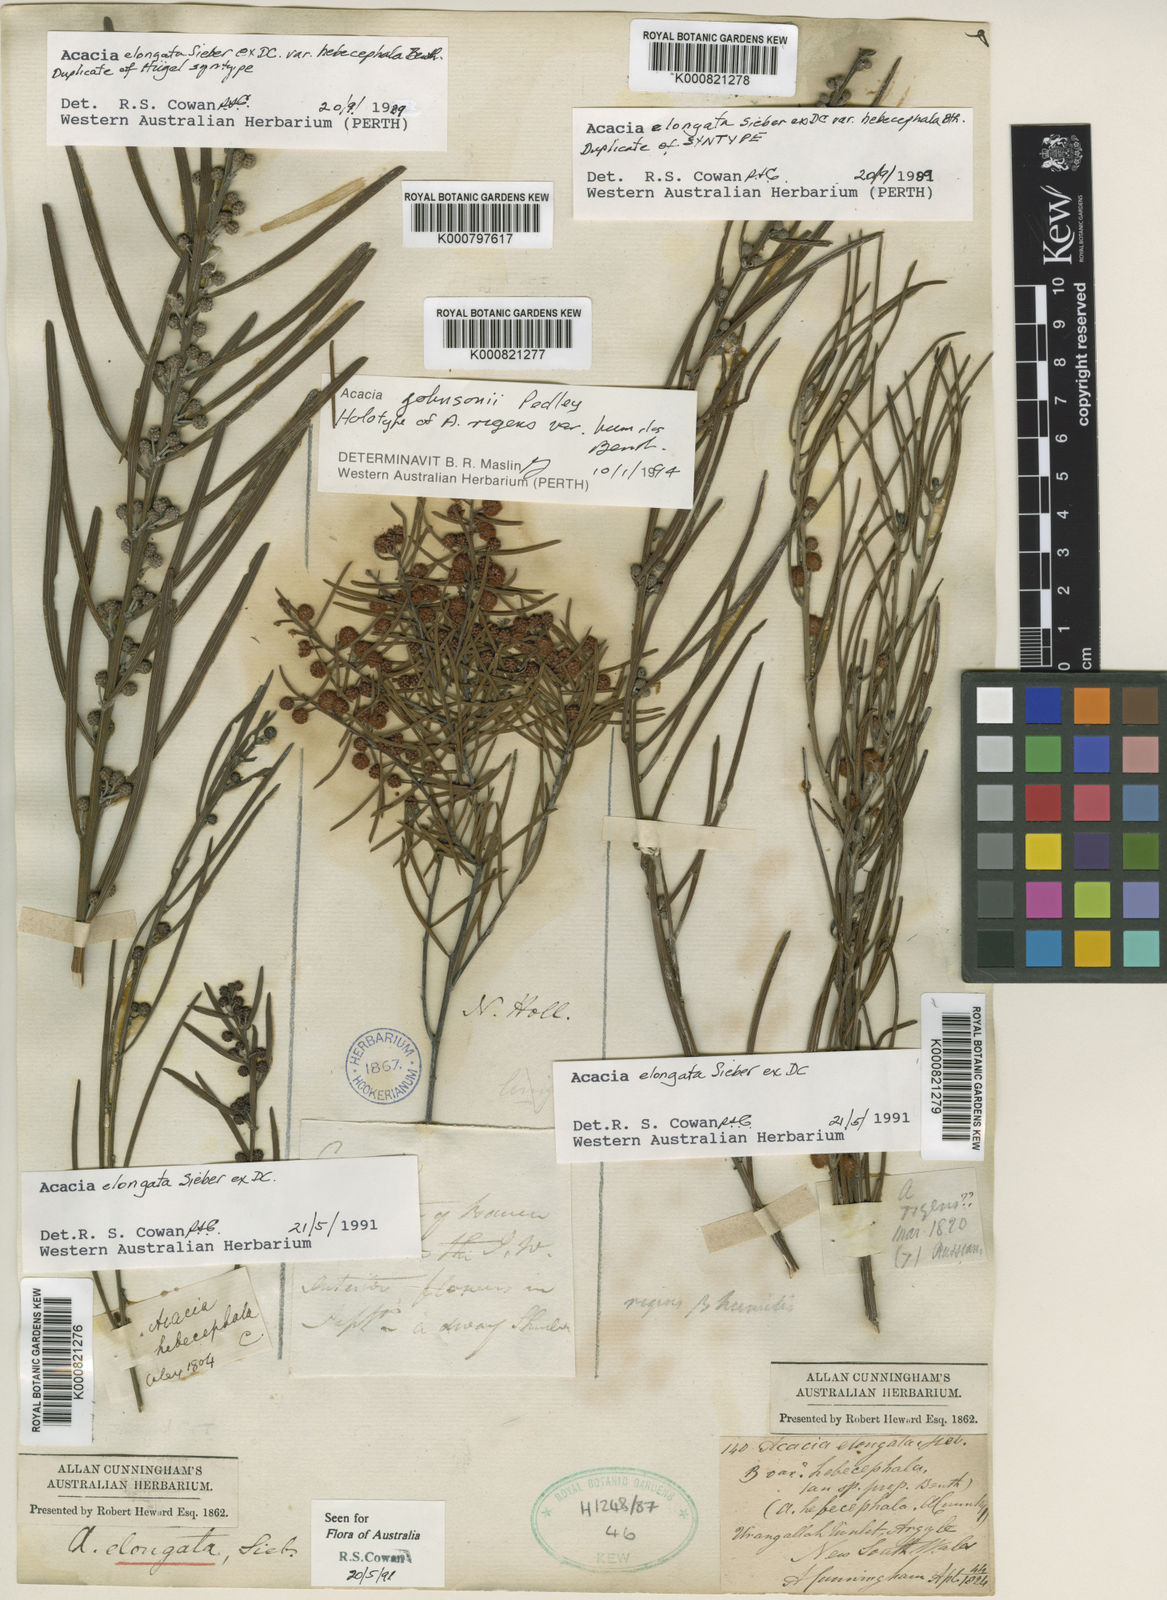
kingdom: Plantae
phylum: Tracheophyta
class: Magnoliopsida
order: Fabales
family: Fabaceae
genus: Acacia
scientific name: Acacia johnsonii
